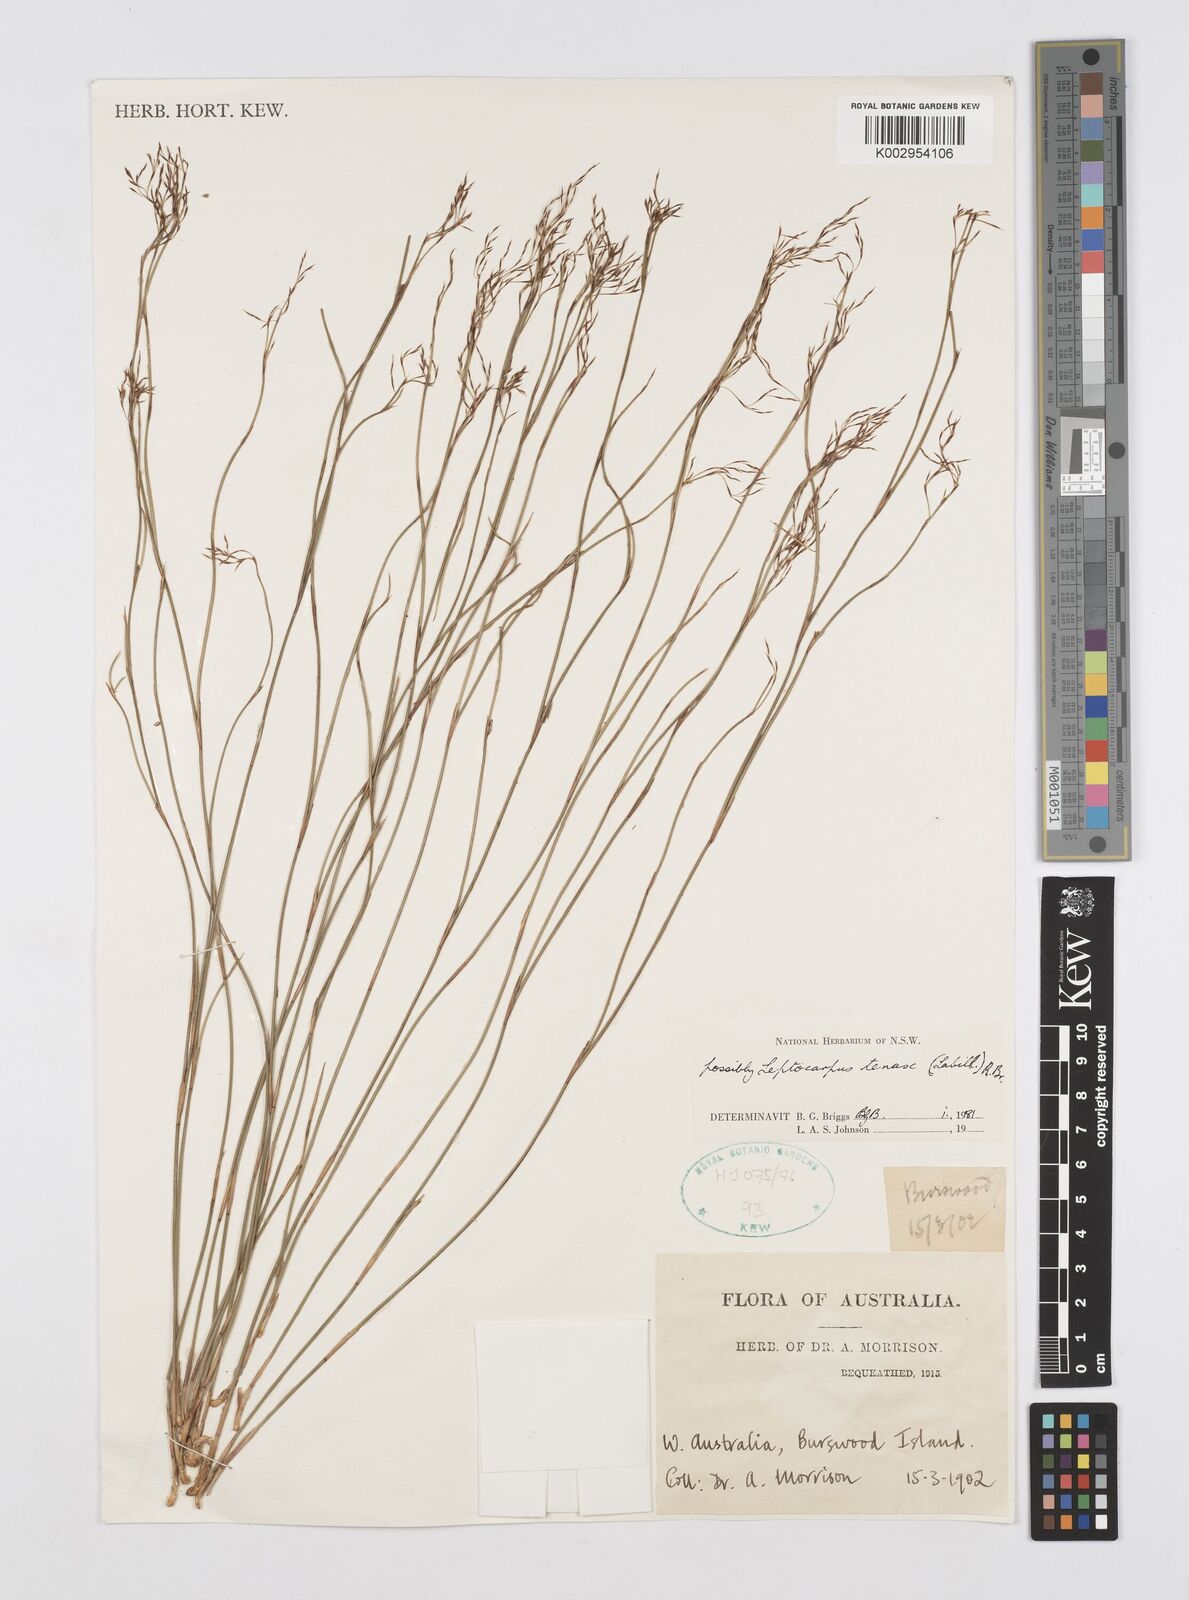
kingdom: Plantae
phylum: Tracheophyta
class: Liliopsida
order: Poales
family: Restionaceae
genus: Leptocarpus
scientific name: Leptocarpus tenax
